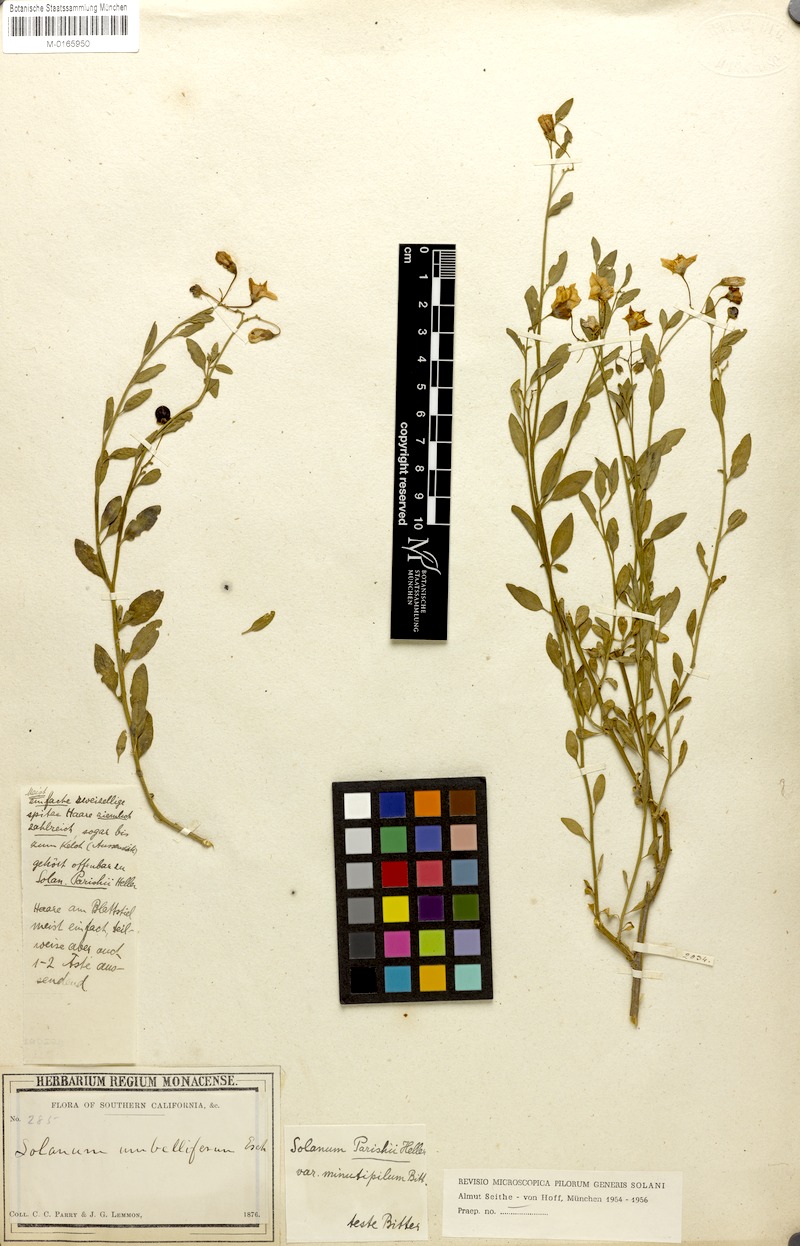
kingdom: Plantae
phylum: Tracheophyta
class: Magnoliopsida
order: Solanales
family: Solanaceae
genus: Solanum
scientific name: Solanum umbelliferum
